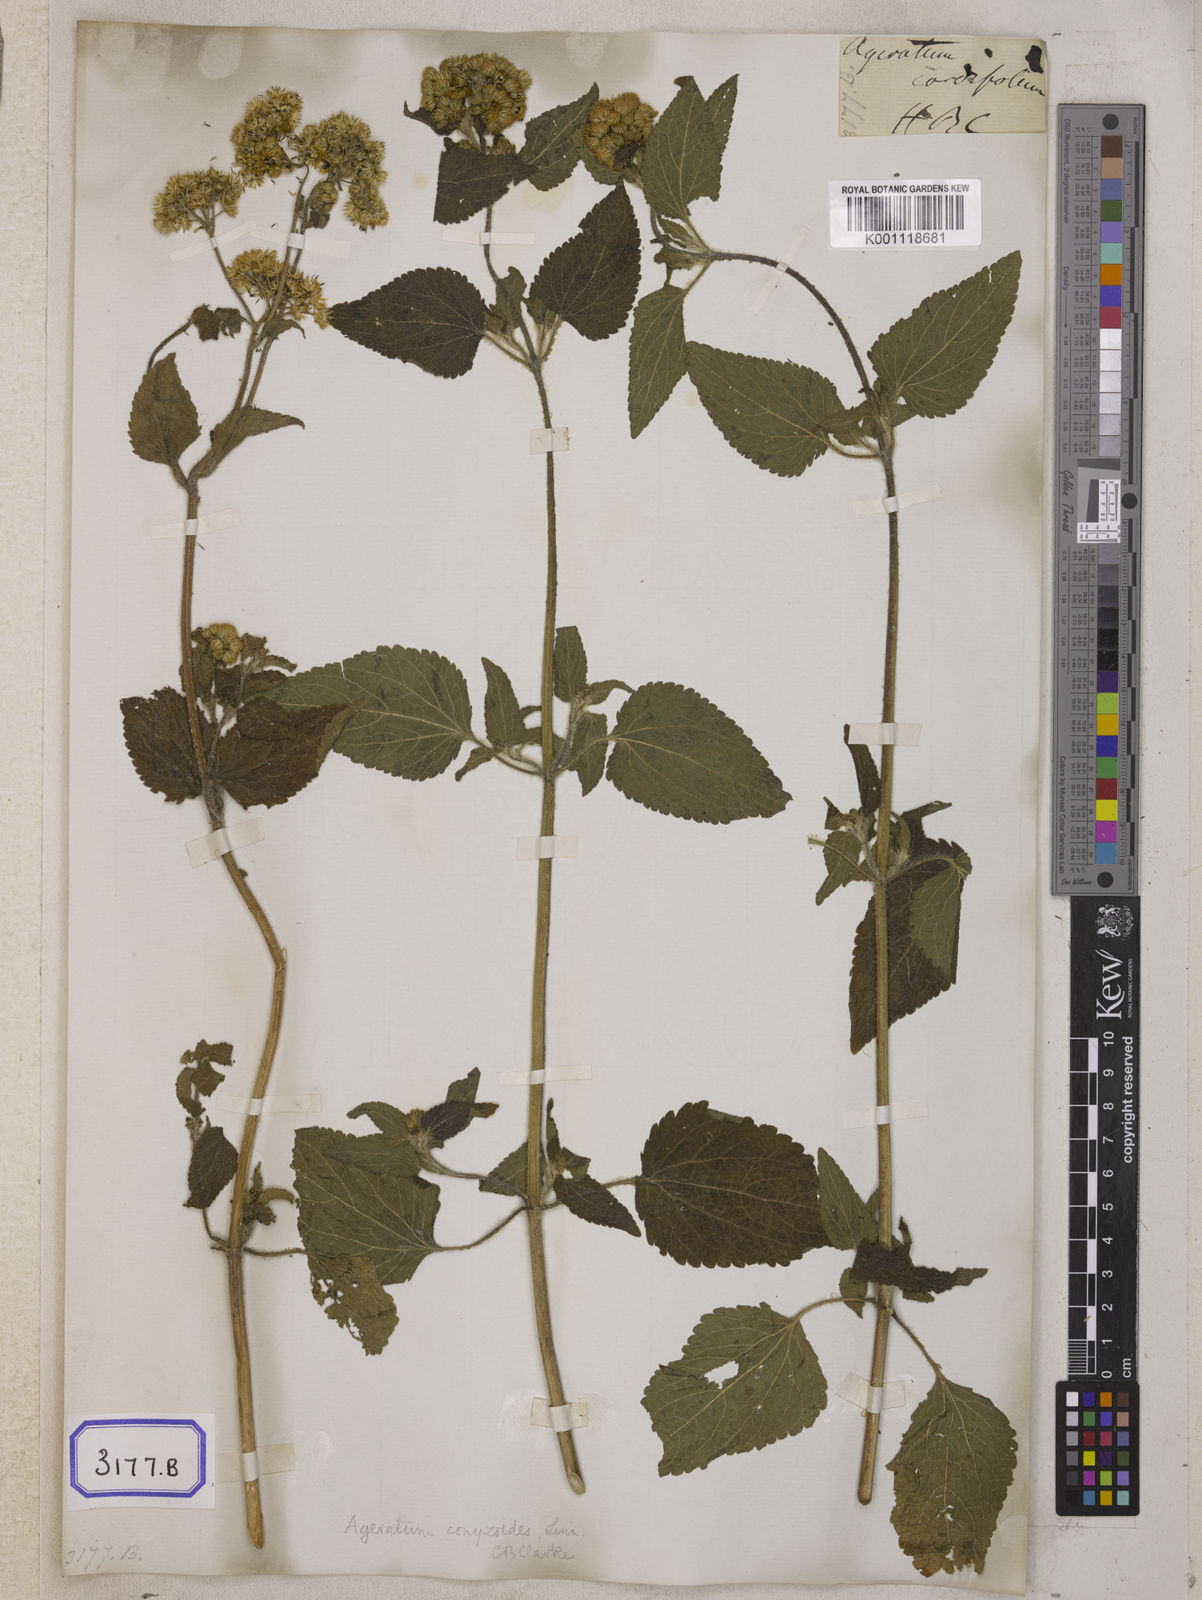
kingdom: Plantae
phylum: Tracheophyta
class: Magnoliopsida
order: Asterales
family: Asteraceae
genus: Ageratum
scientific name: Ageratum conyzoides
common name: Tropical whiteweed
